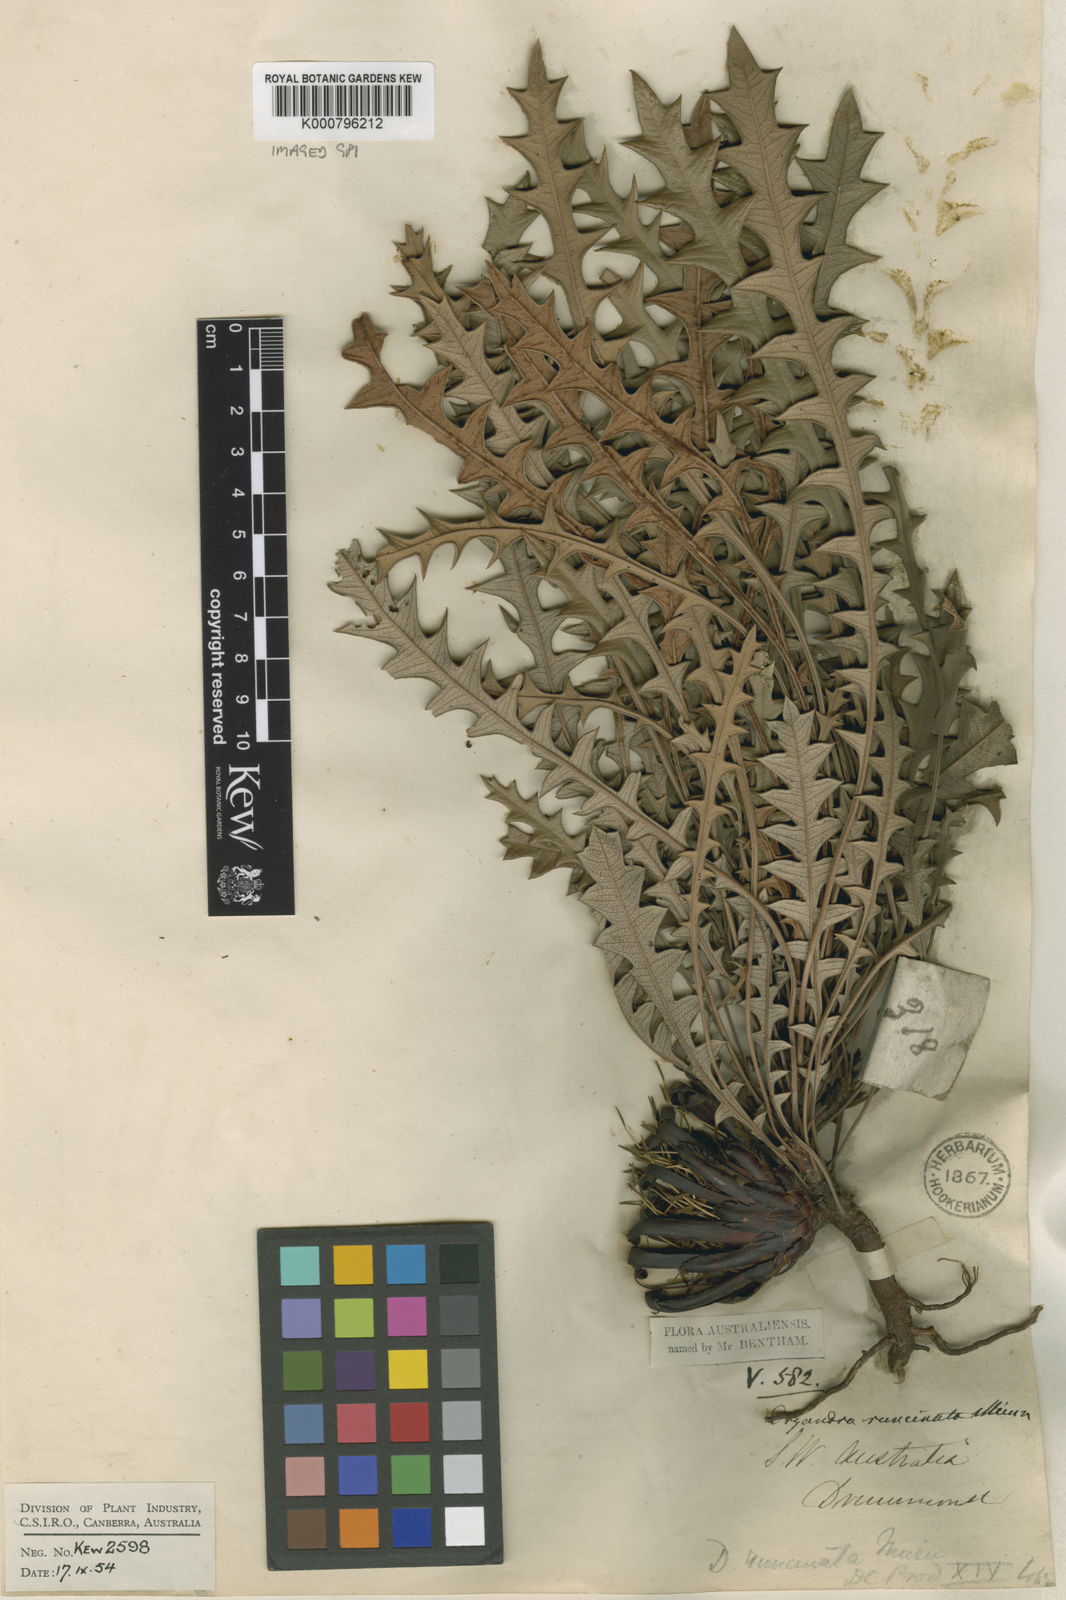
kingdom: Plantae
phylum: Tracheophyta
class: Magnoliopsida
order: Proteales
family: Proteaceae
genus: Banksia
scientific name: Banksia rufa
